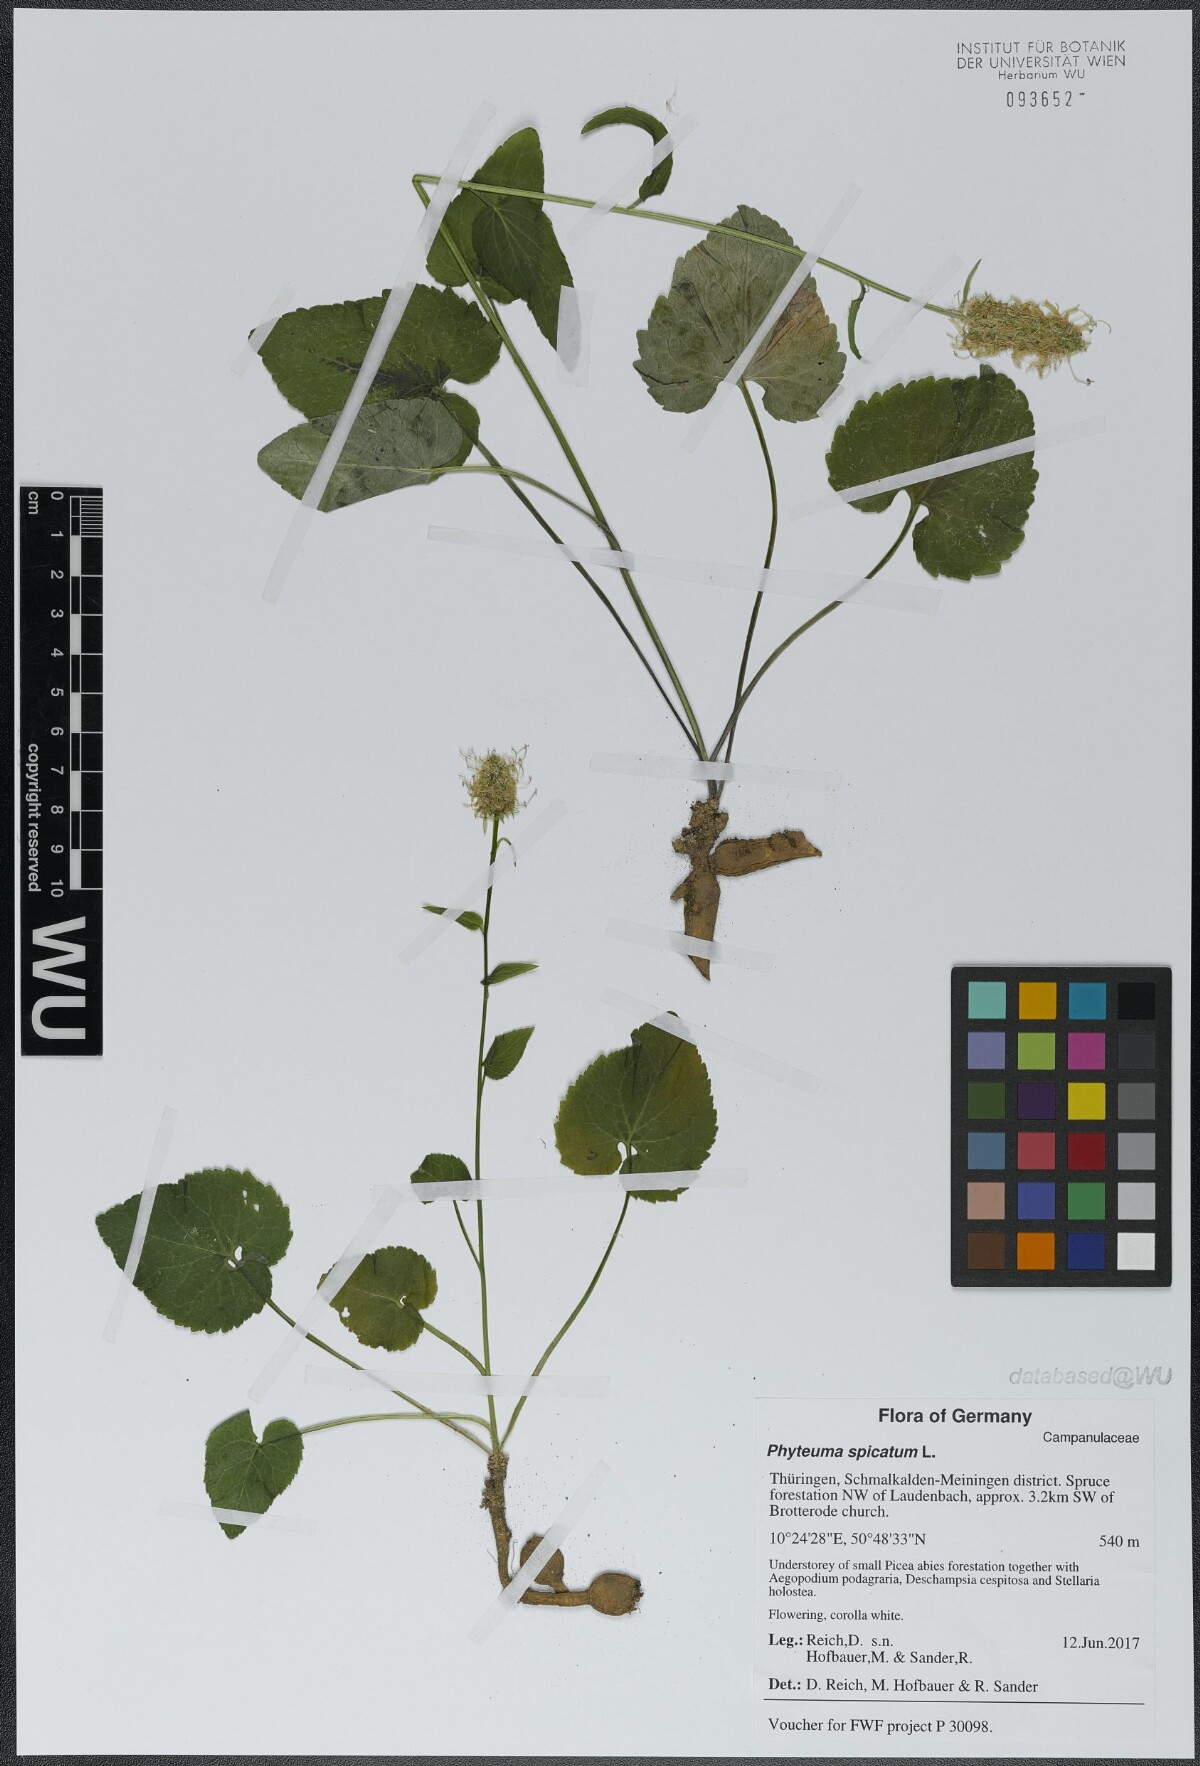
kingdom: Plantae
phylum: Tracheophyta
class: Magnoliopsida
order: Asterales
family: Campanulaceae
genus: Phyteuma
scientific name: Phyteuma spicatum
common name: Spiked rampion
